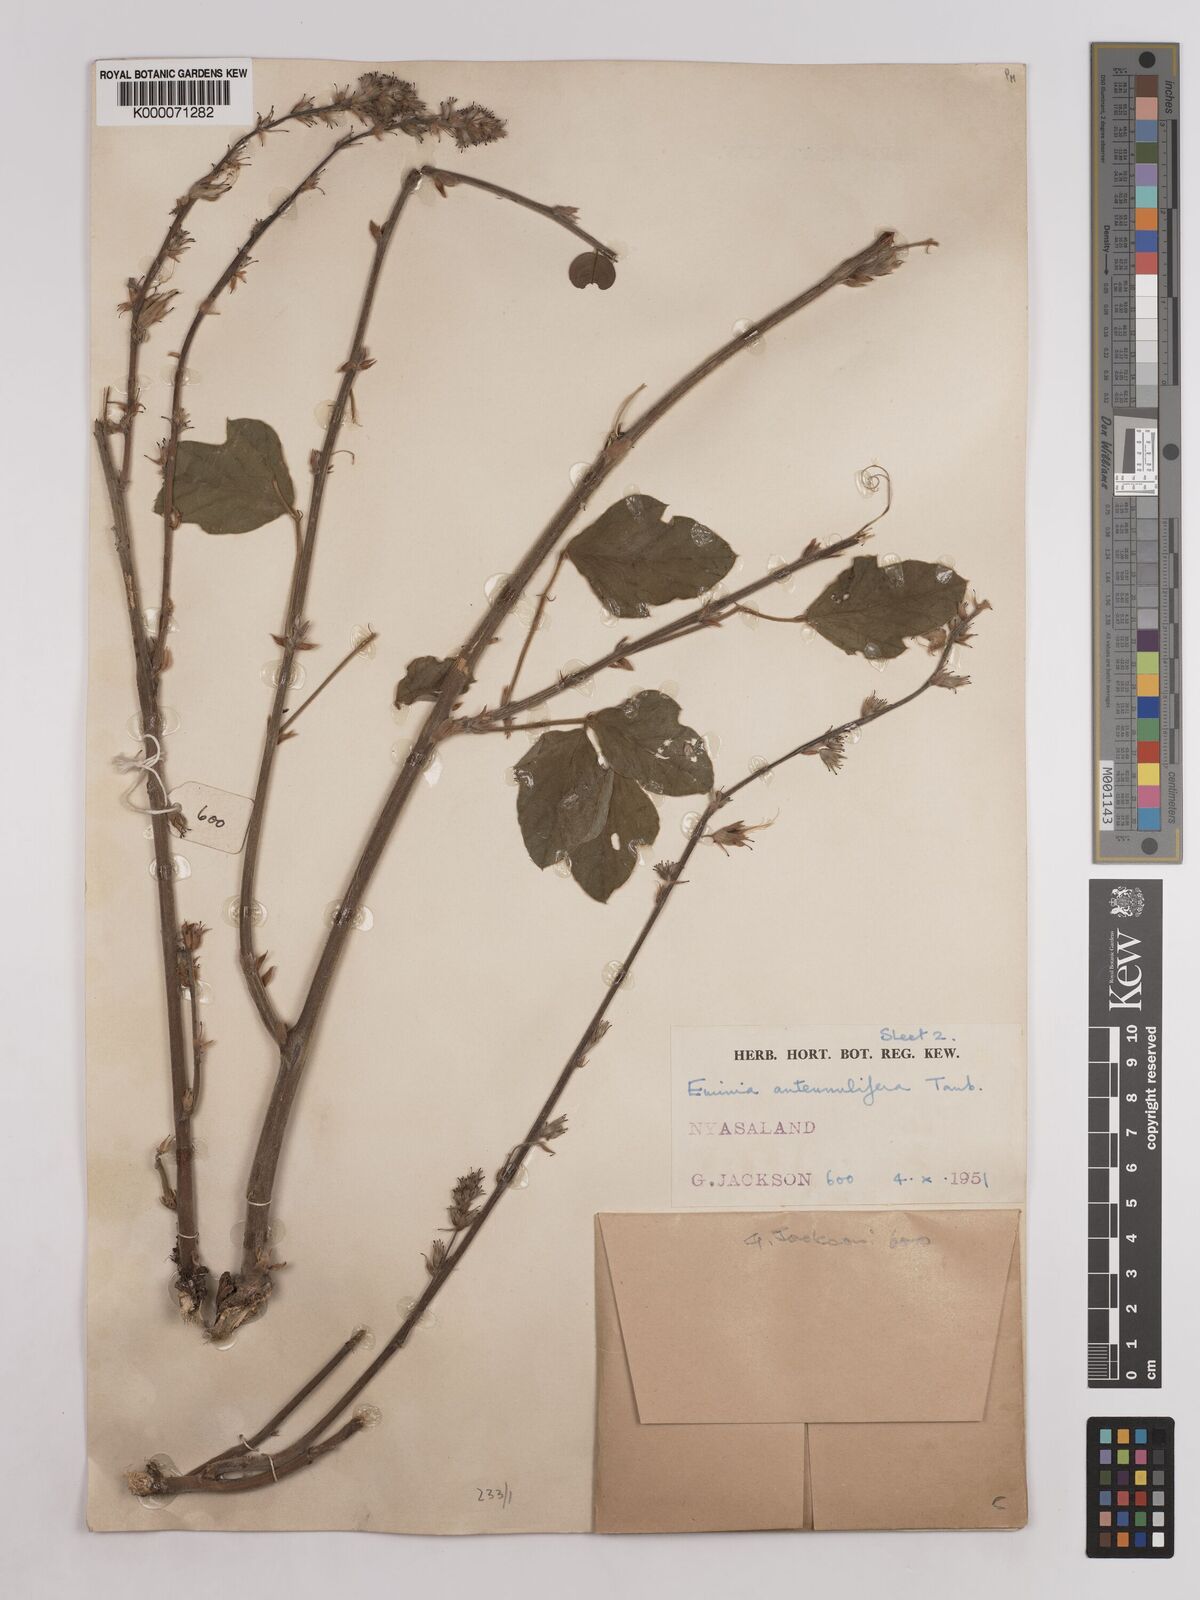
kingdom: Plantae
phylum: Tracheophyta
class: Magnoliopsida
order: Fabales
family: Fabaceae
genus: Eminia
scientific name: Eminia antennulifera
